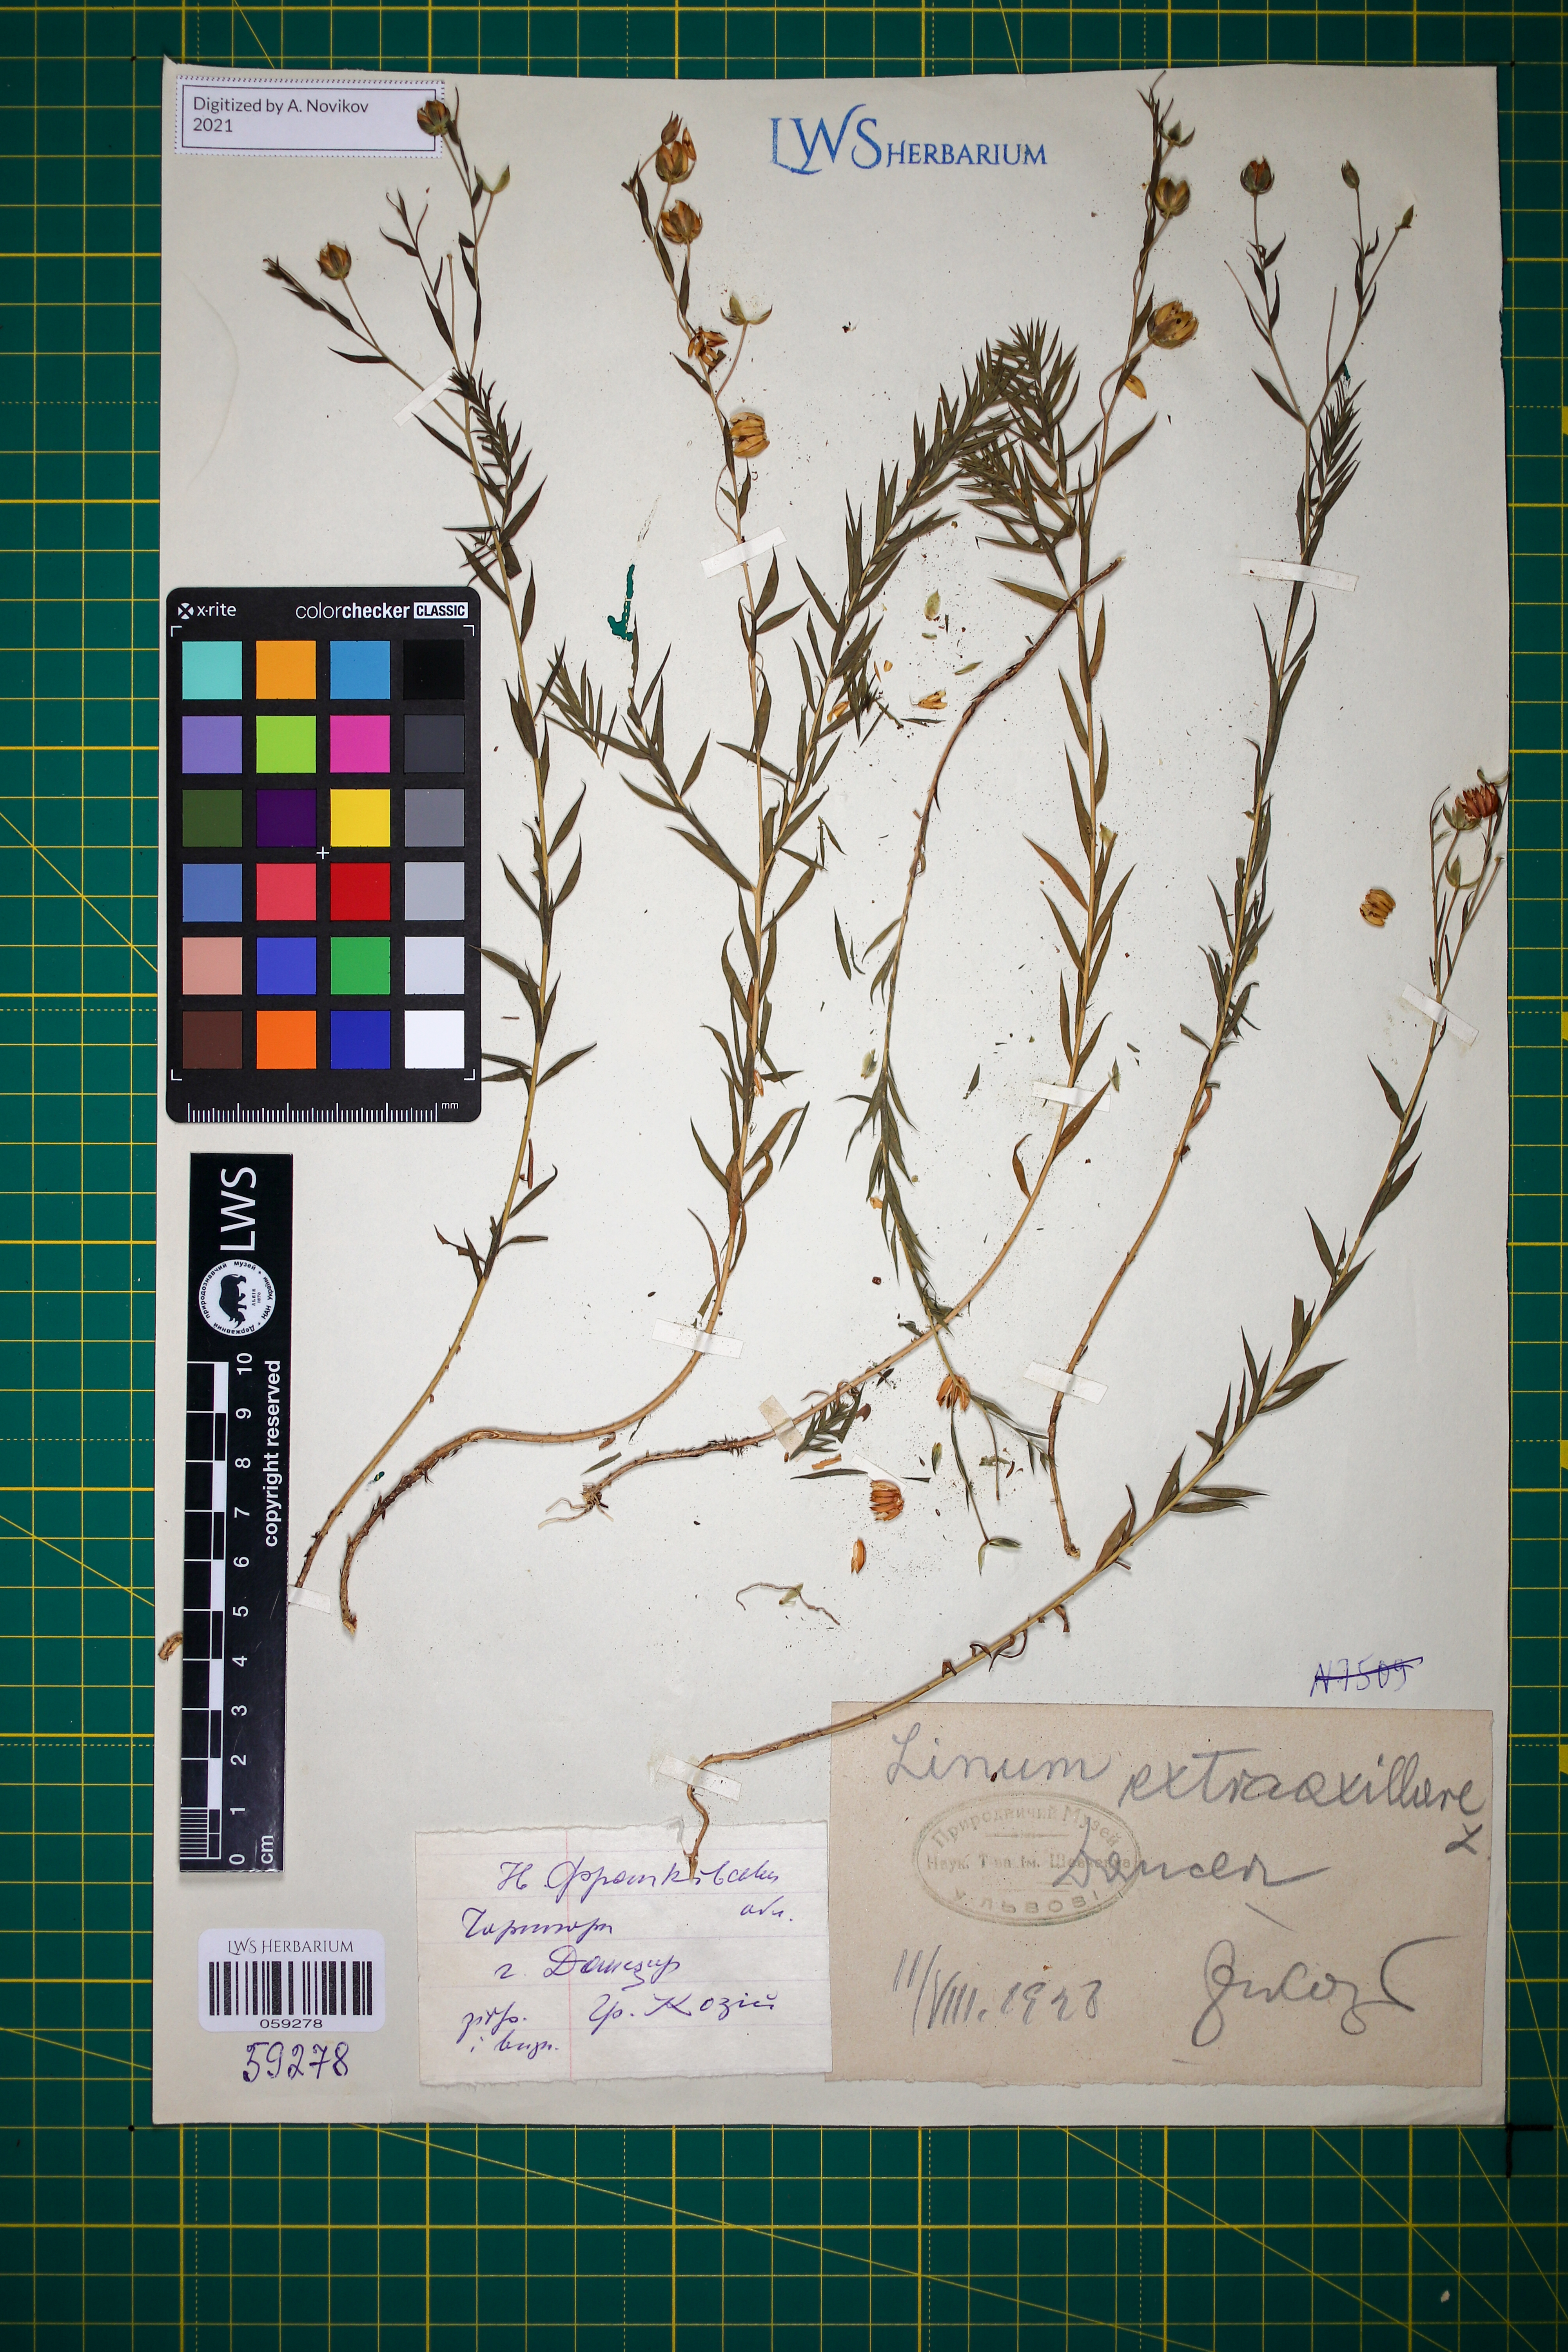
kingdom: Plantae
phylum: Tracheophyta
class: Magnoliopsida
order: Malpighiales
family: Linaceae
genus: Linum
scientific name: Linum perenne
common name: Blue flax
